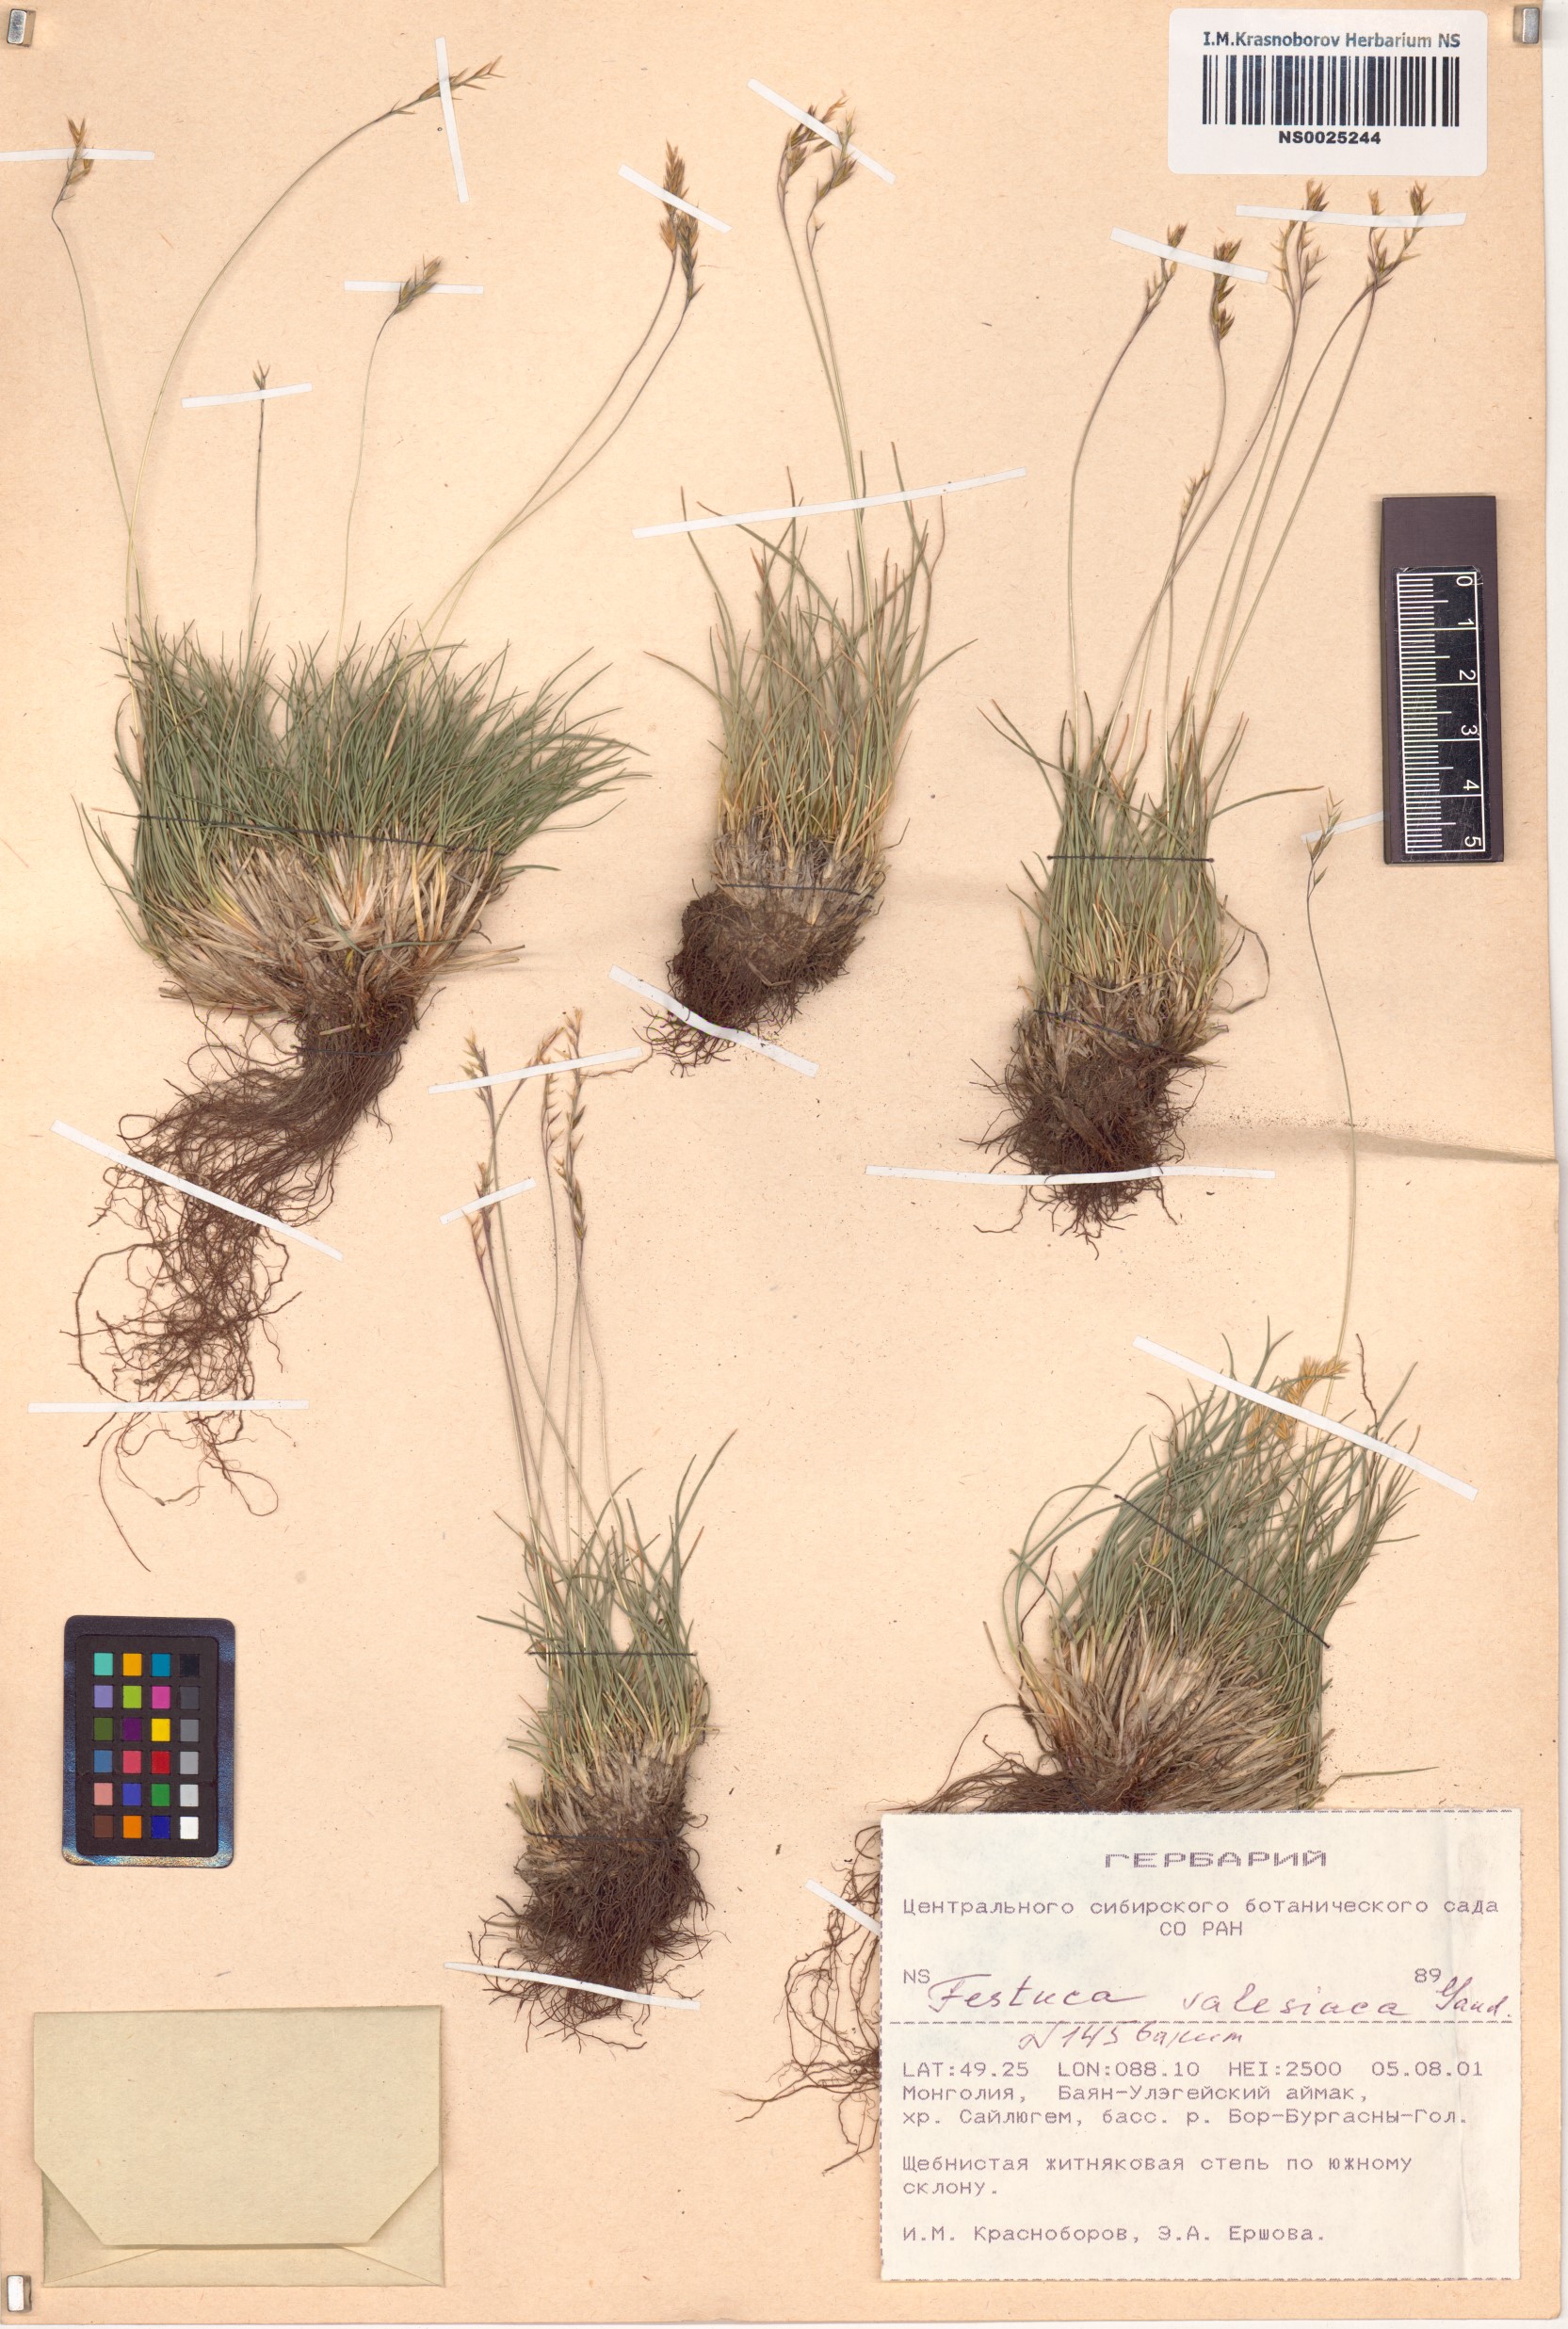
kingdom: Plantae
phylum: Tracheophyta
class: Liliopsida
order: Poales
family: Poaceae
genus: Festuca
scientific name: Festuca valesiaca
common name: Volga fescue
